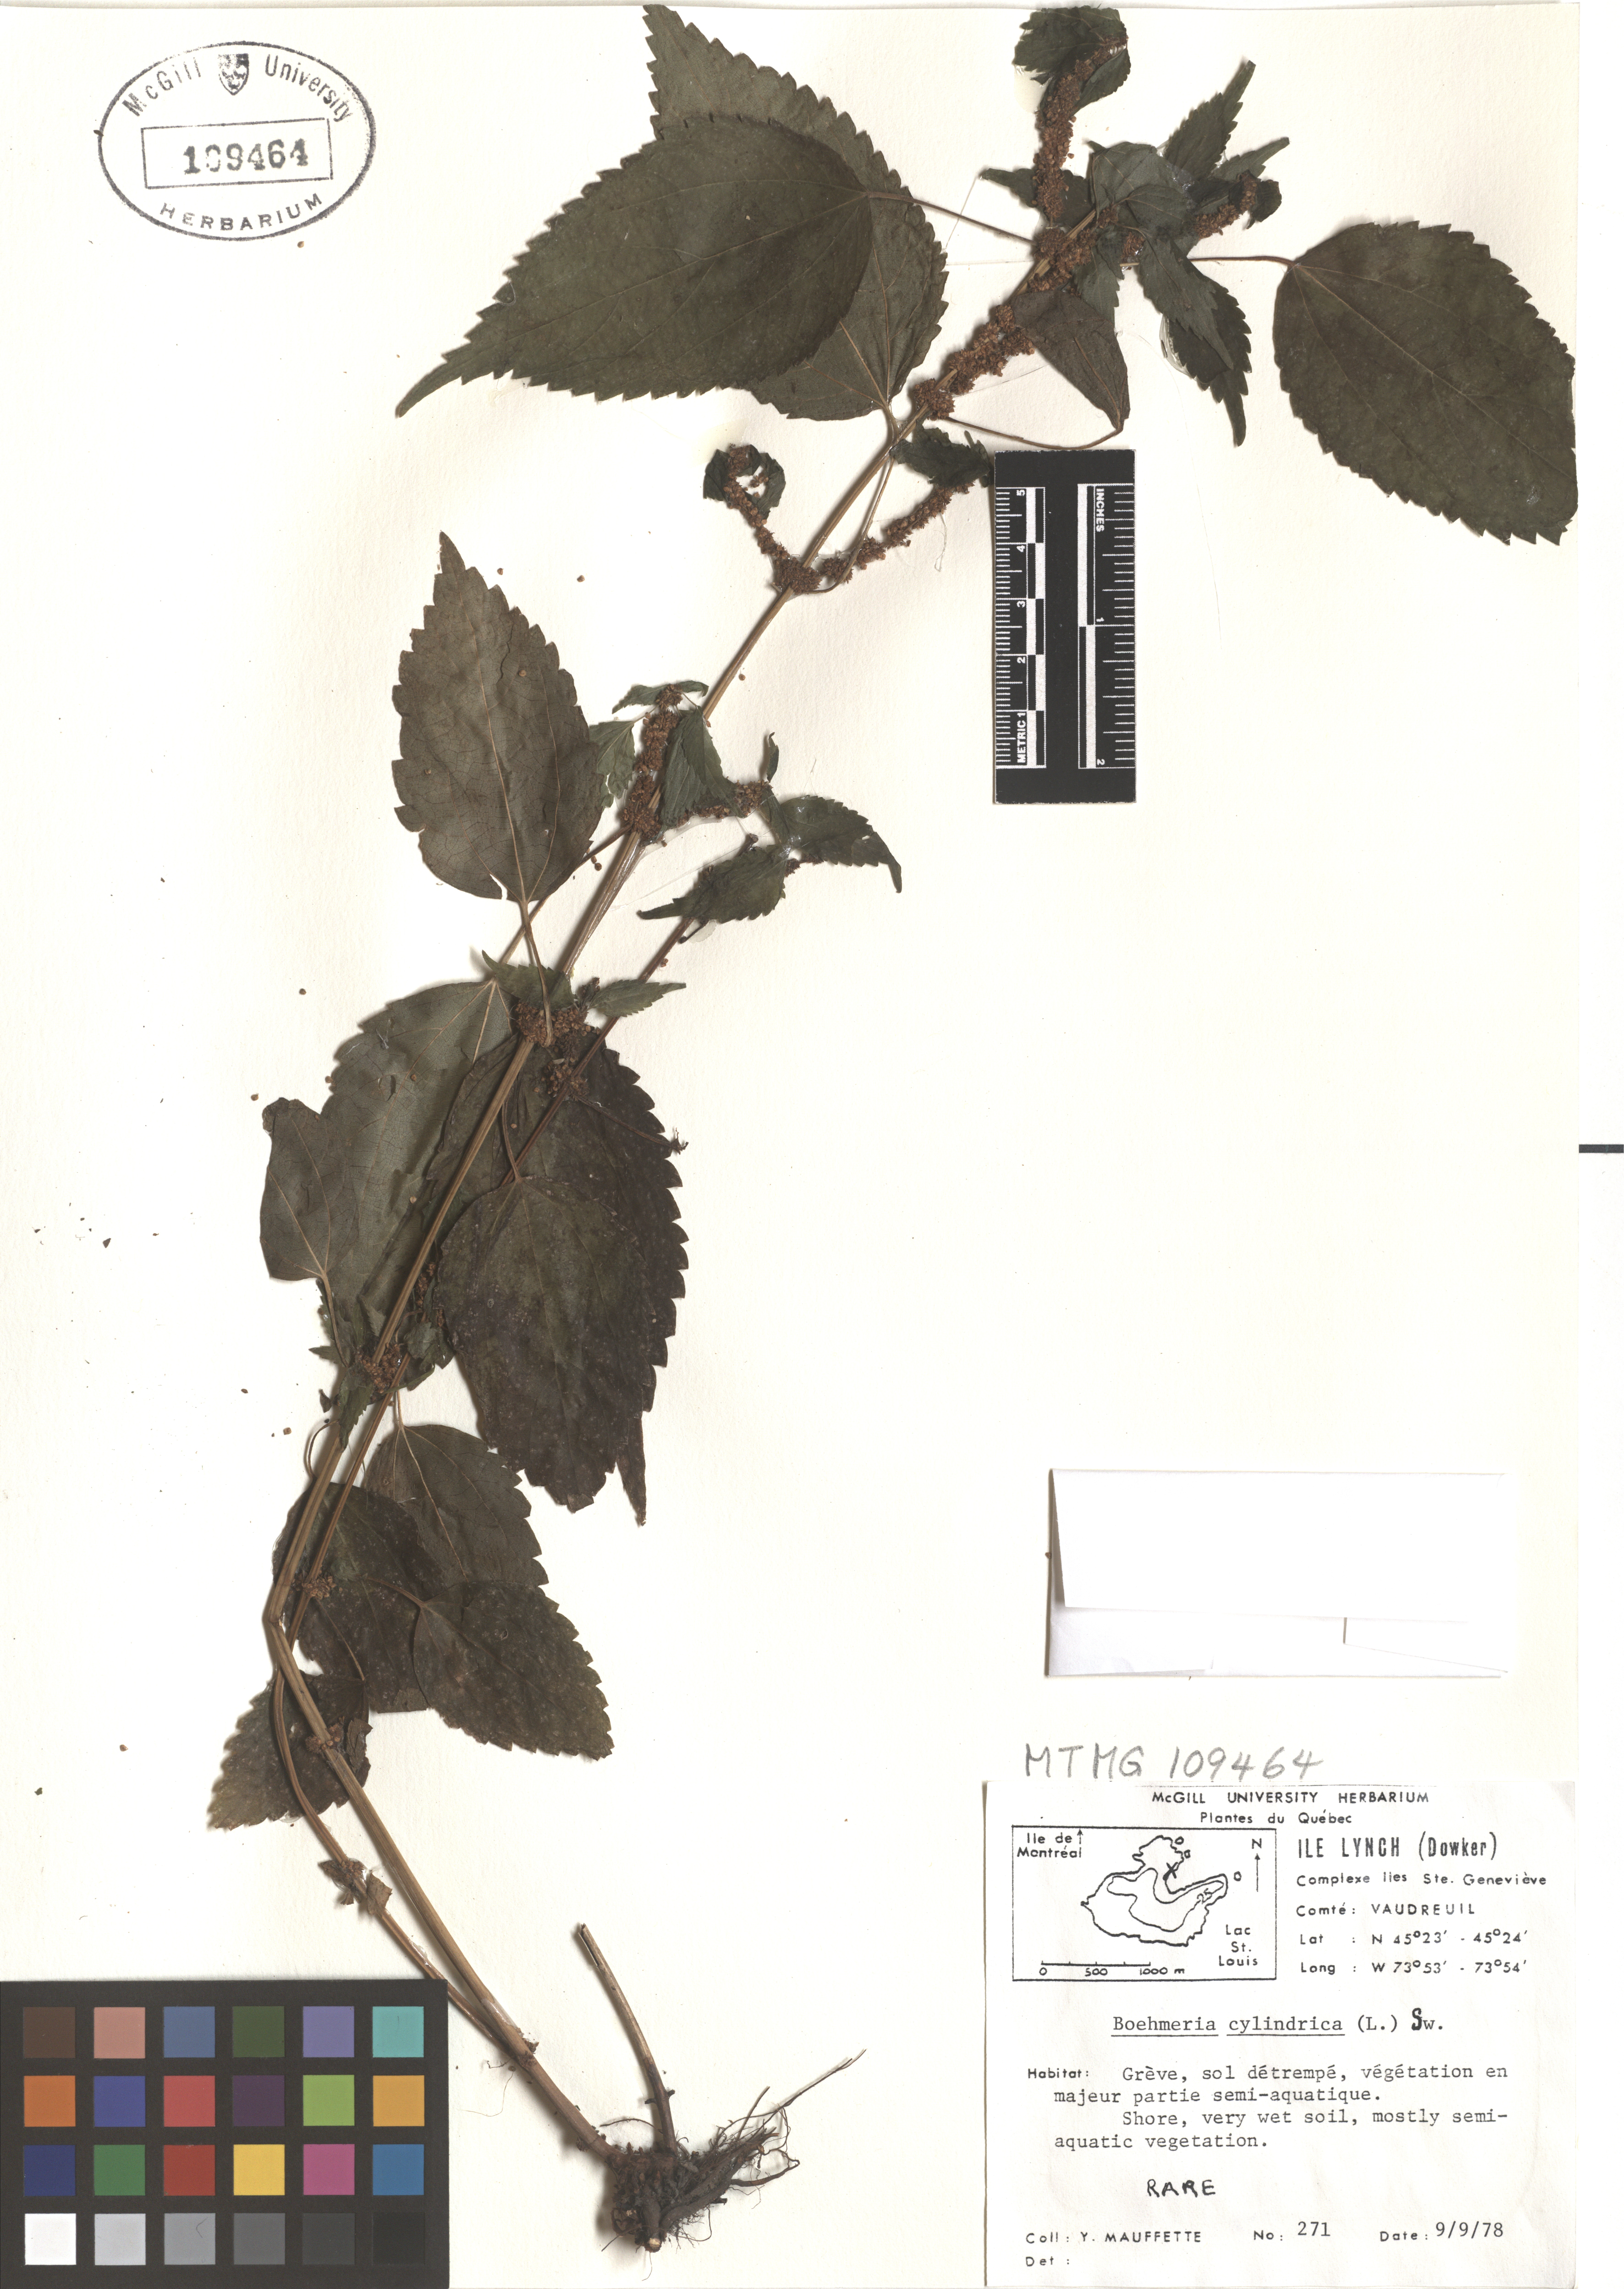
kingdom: Plantae
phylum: Tracheophyta
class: Magnoliopsida
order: Rosales
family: Urticaceae
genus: Boehmeria
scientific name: Boehmeria cylindrica
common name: Bog-hemp
